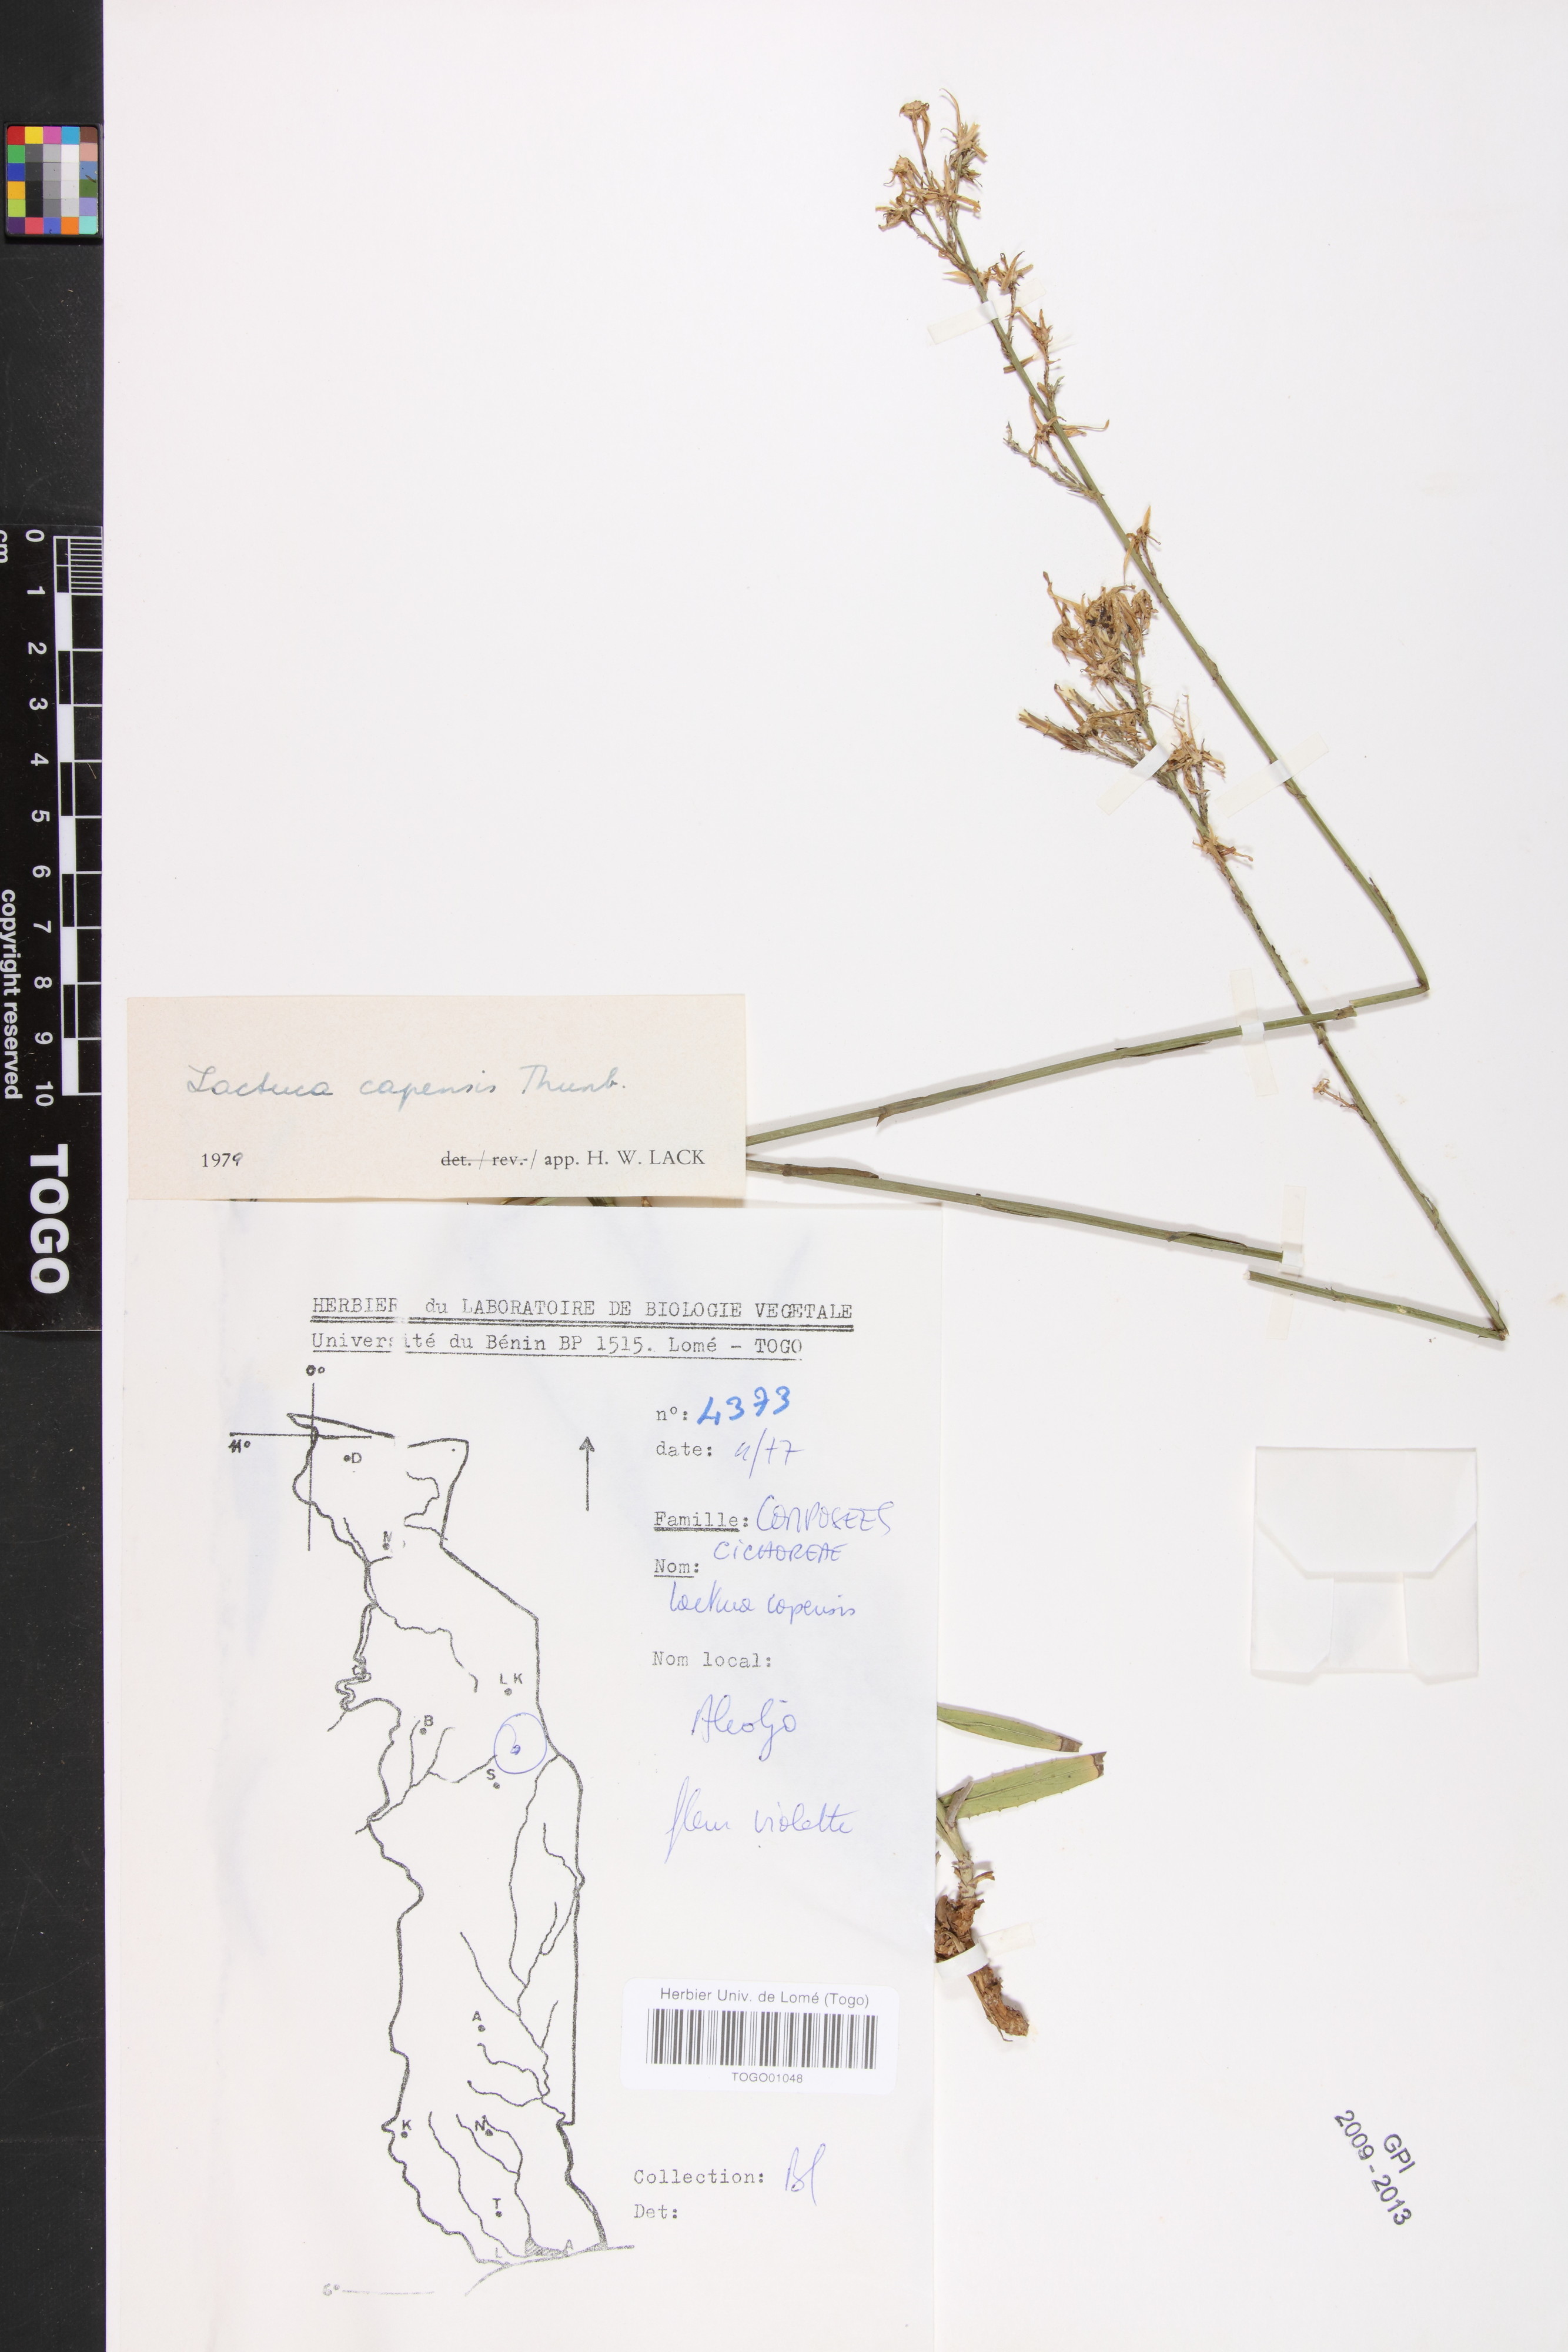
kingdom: Plantae
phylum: Tracheophyta
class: Magnoliopsida
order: Asterales
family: Asteraceae
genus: Lactuca
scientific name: Lactuca inermis
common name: Wild lettuce
